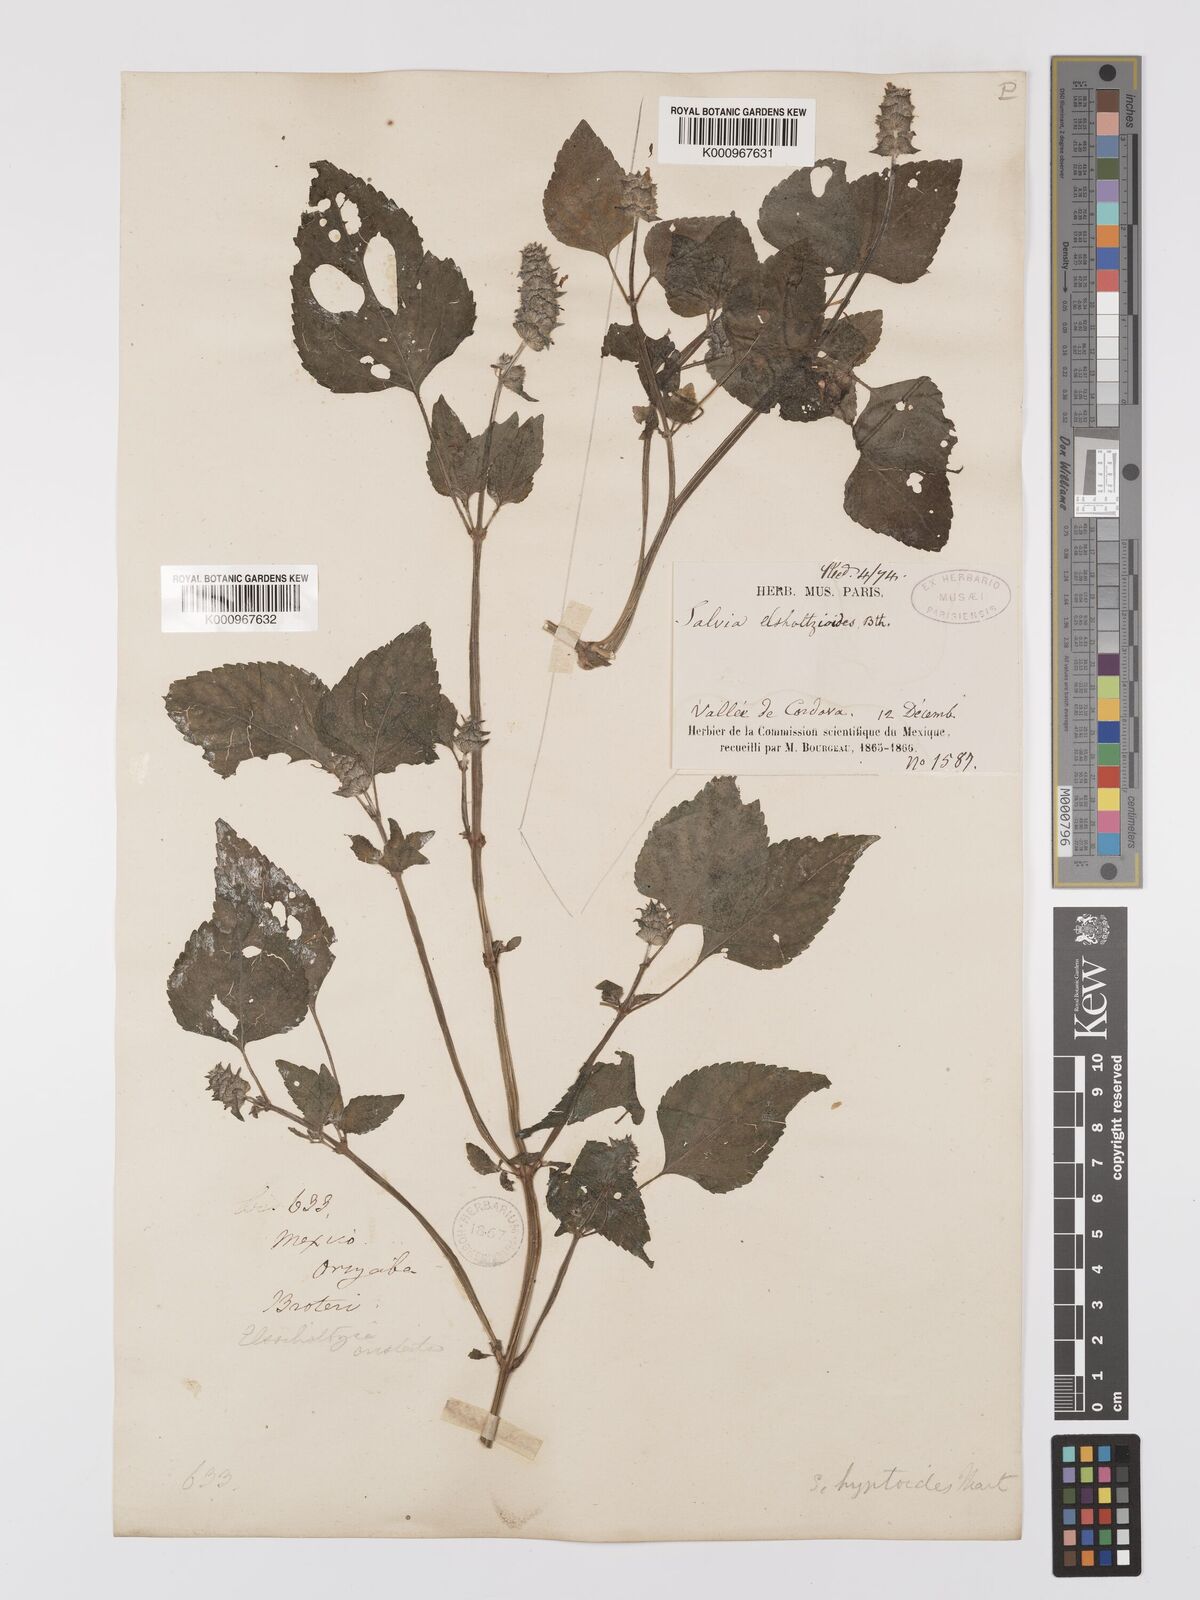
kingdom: Plantae
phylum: Tracheophyta
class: Magnoliopsida
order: Lamiales
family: Lamiaceae
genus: Salvia
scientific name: Salvia lasiocephala
